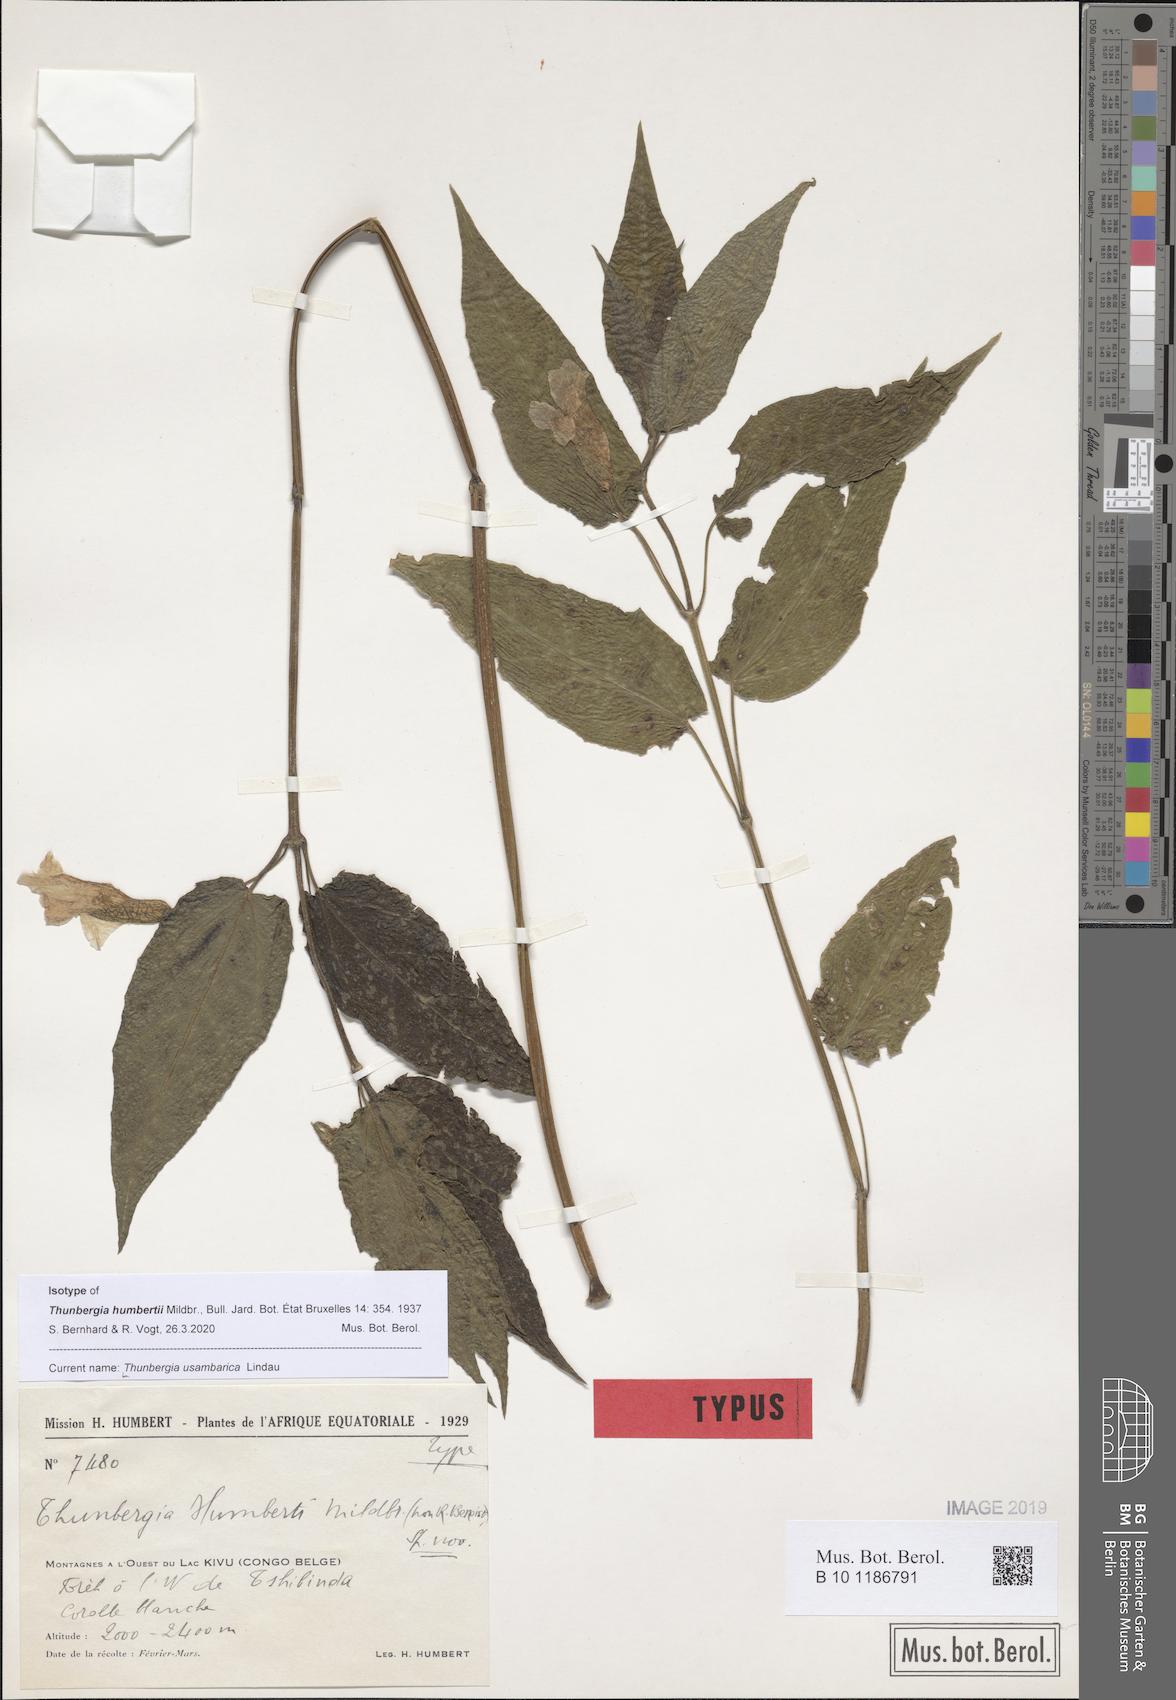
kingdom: Plantae
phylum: Tracheophyta
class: Magnoliopsida
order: Lamiales
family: Acanthaceae
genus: Thunbergia
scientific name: Thunbergia usambarica
